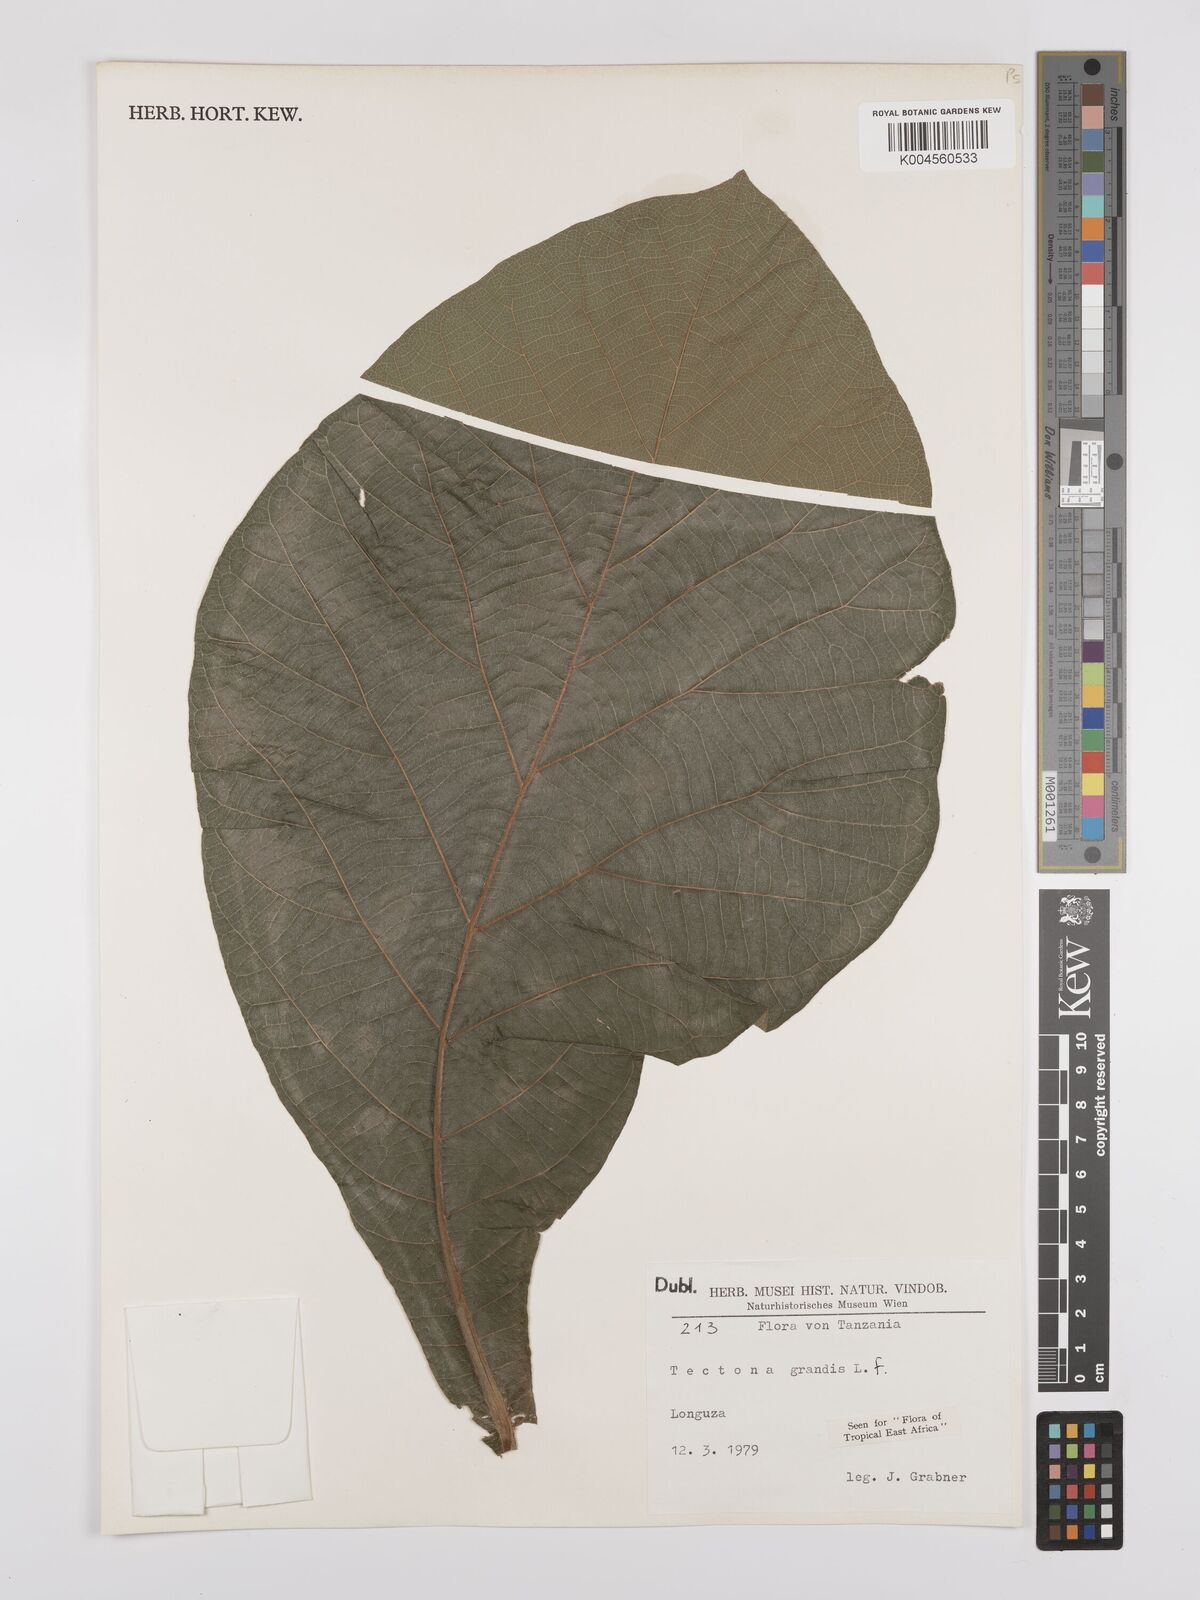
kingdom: Plantae
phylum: Tracheophyta
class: Magnoliopsida
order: Lamiales
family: Lamiaceae
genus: Tectona
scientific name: Tectona grandis
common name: Teak
